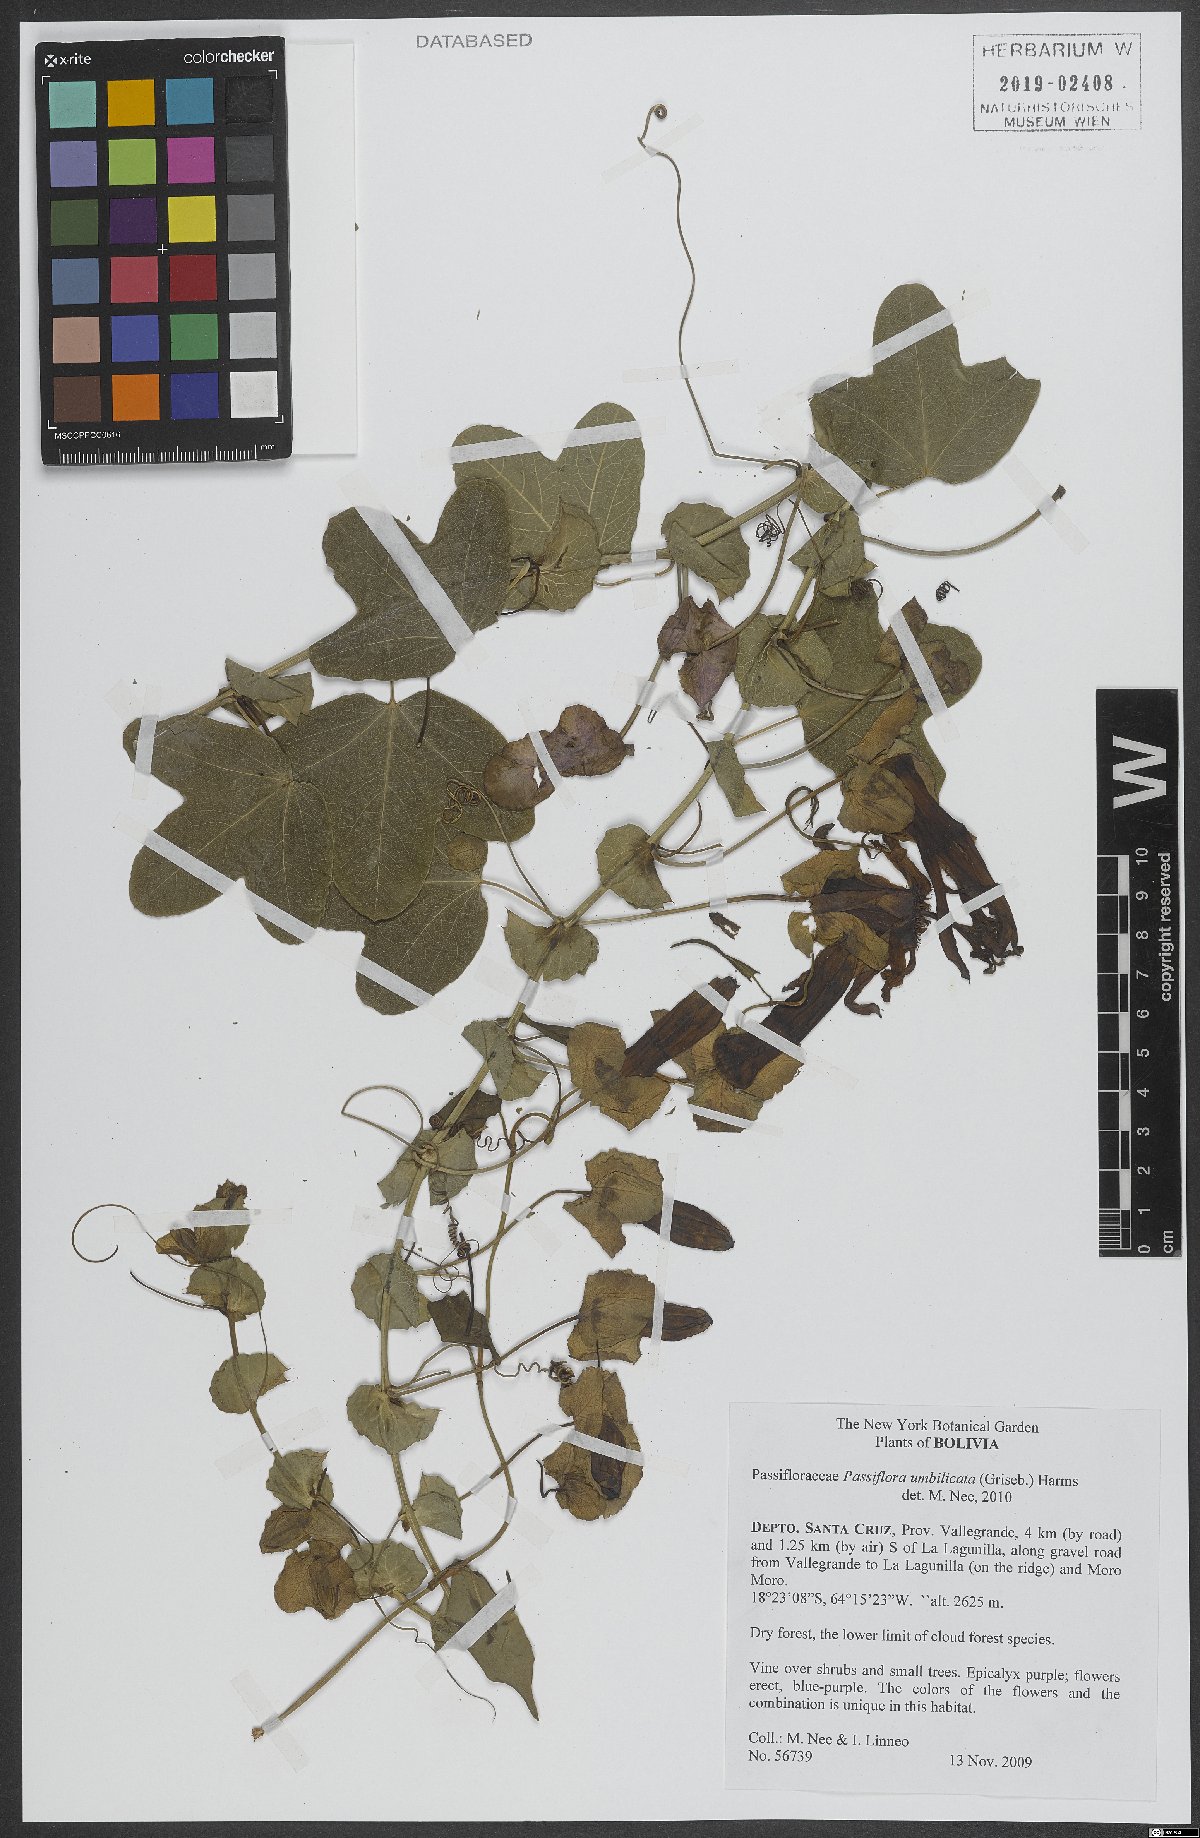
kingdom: Plantae
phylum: Tracheophyta
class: Magnoliopsida
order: Malpighiales
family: Passifloraceae
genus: Passiflora
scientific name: Passiflora umbilicata
